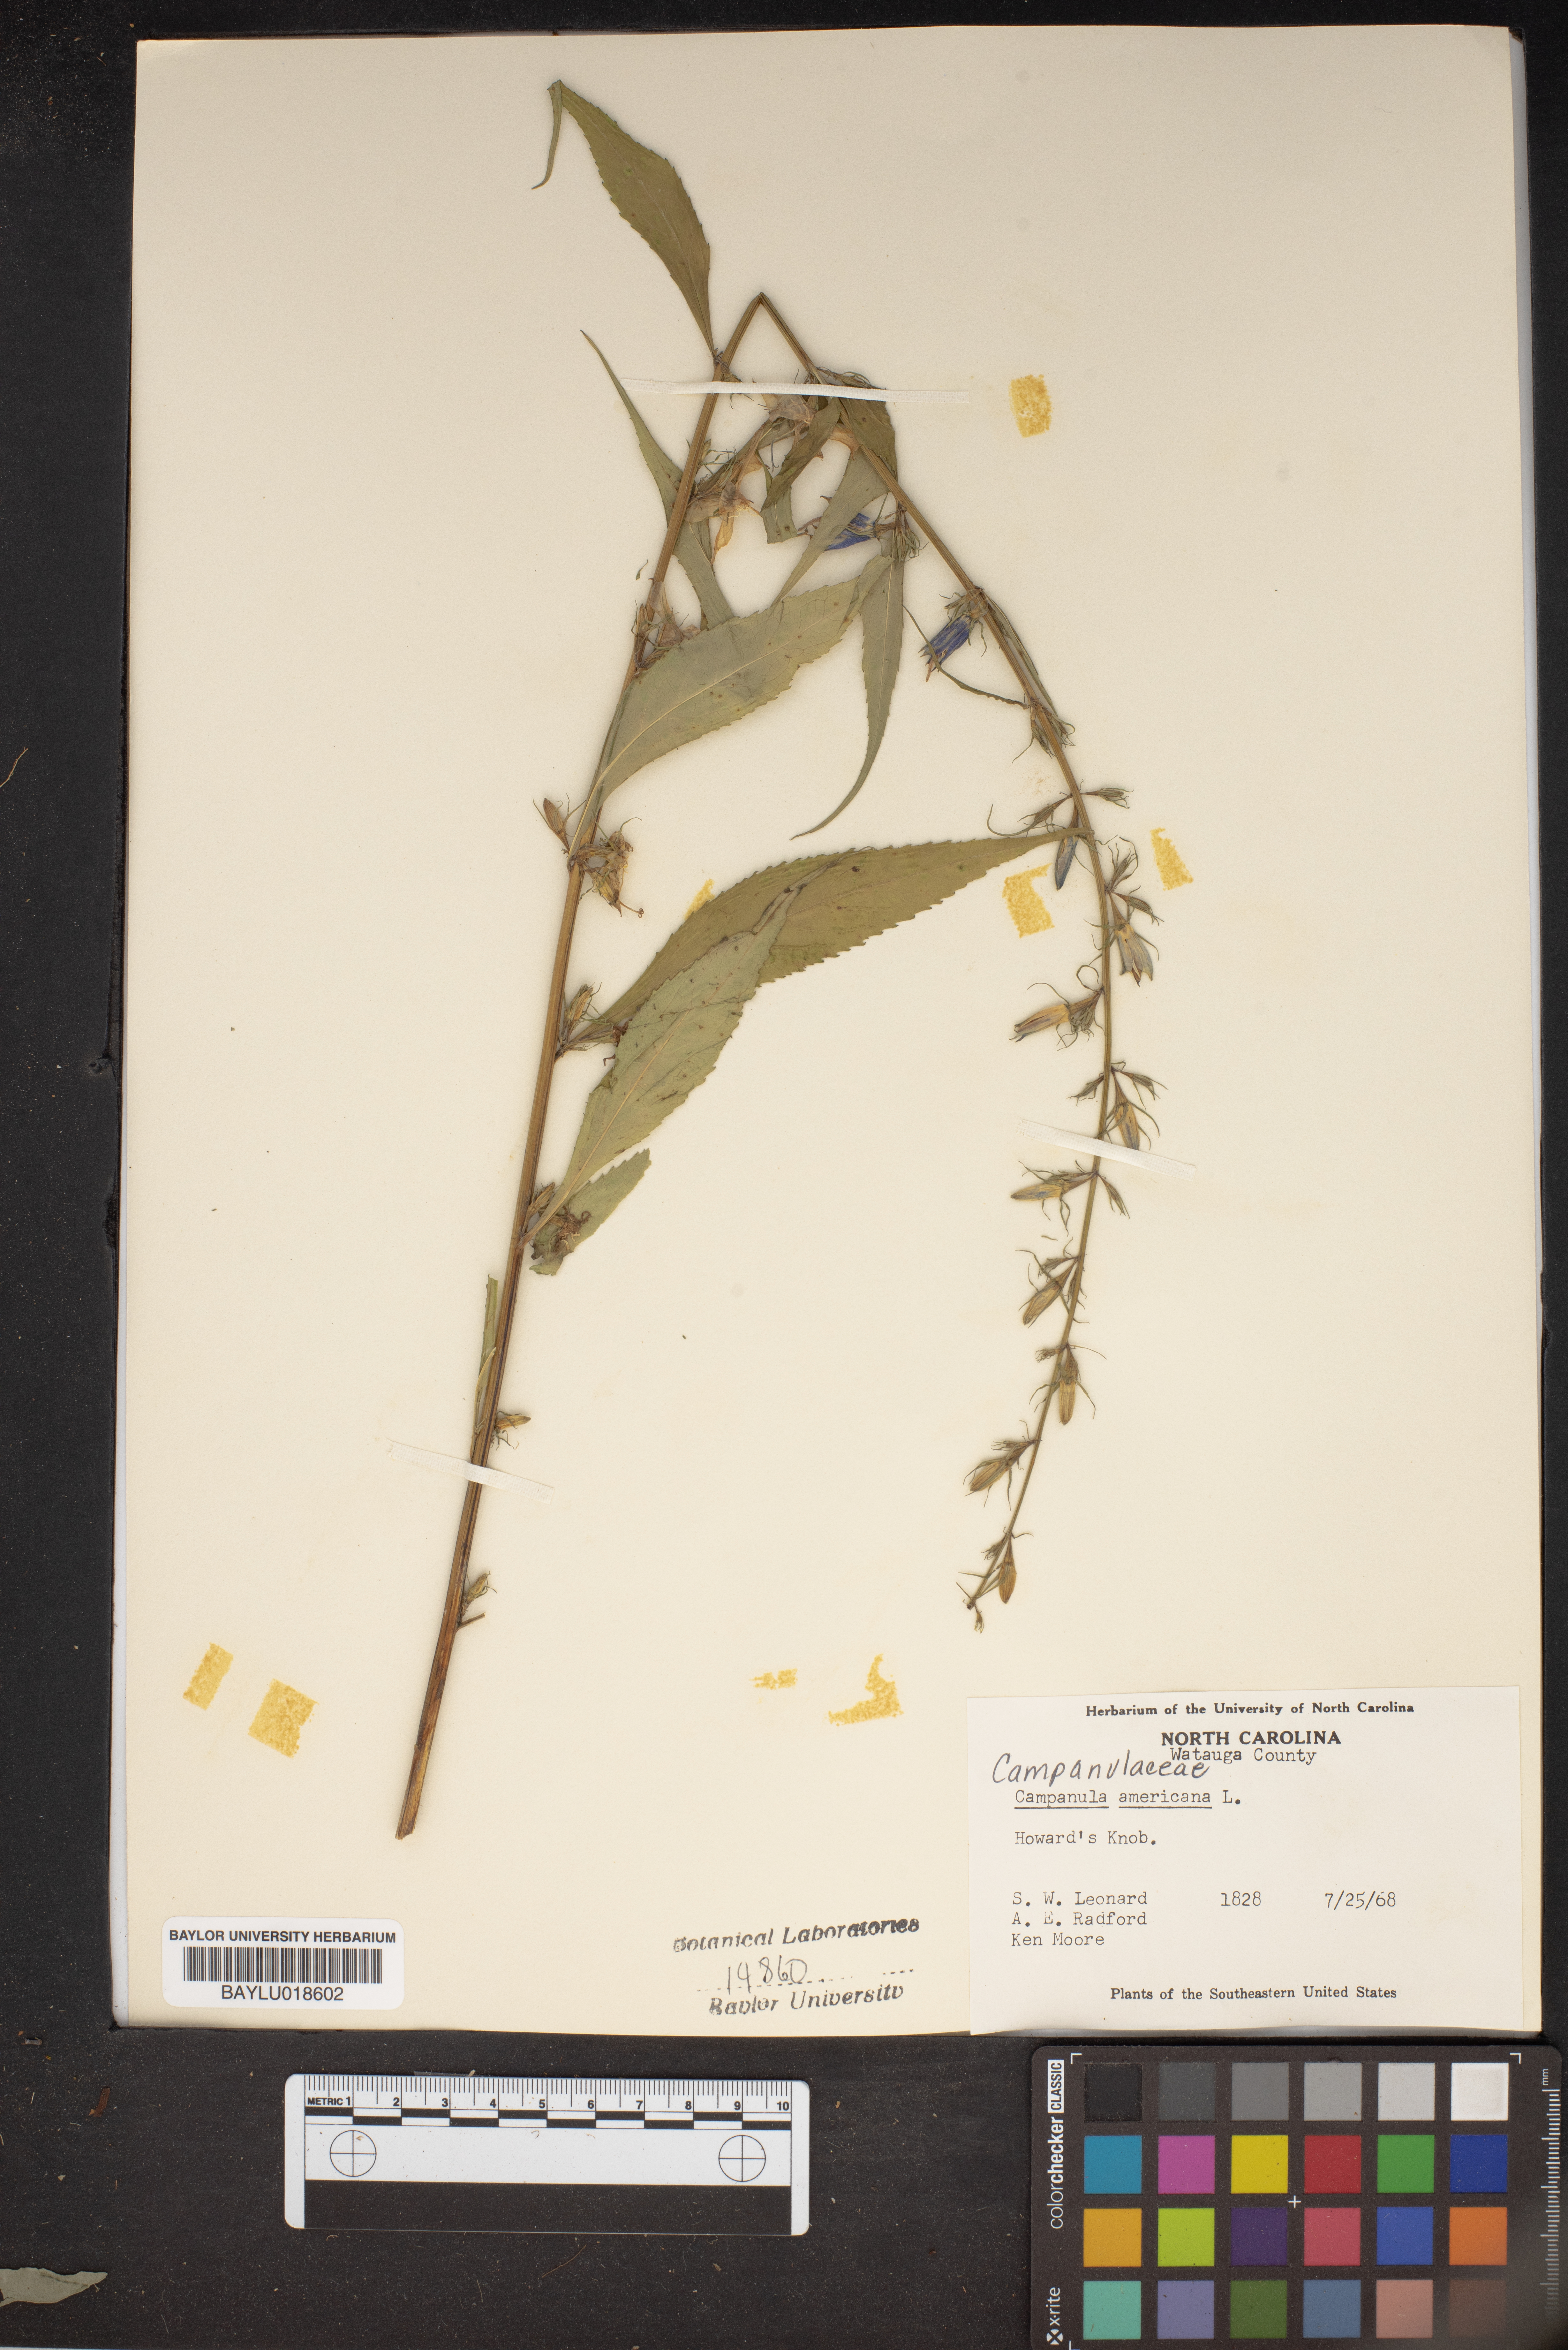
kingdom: Plantae
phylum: Tracheophyta
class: Magnoliopsida
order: Asterales
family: Campanulaceae
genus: Campanula
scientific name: Campanula americana
